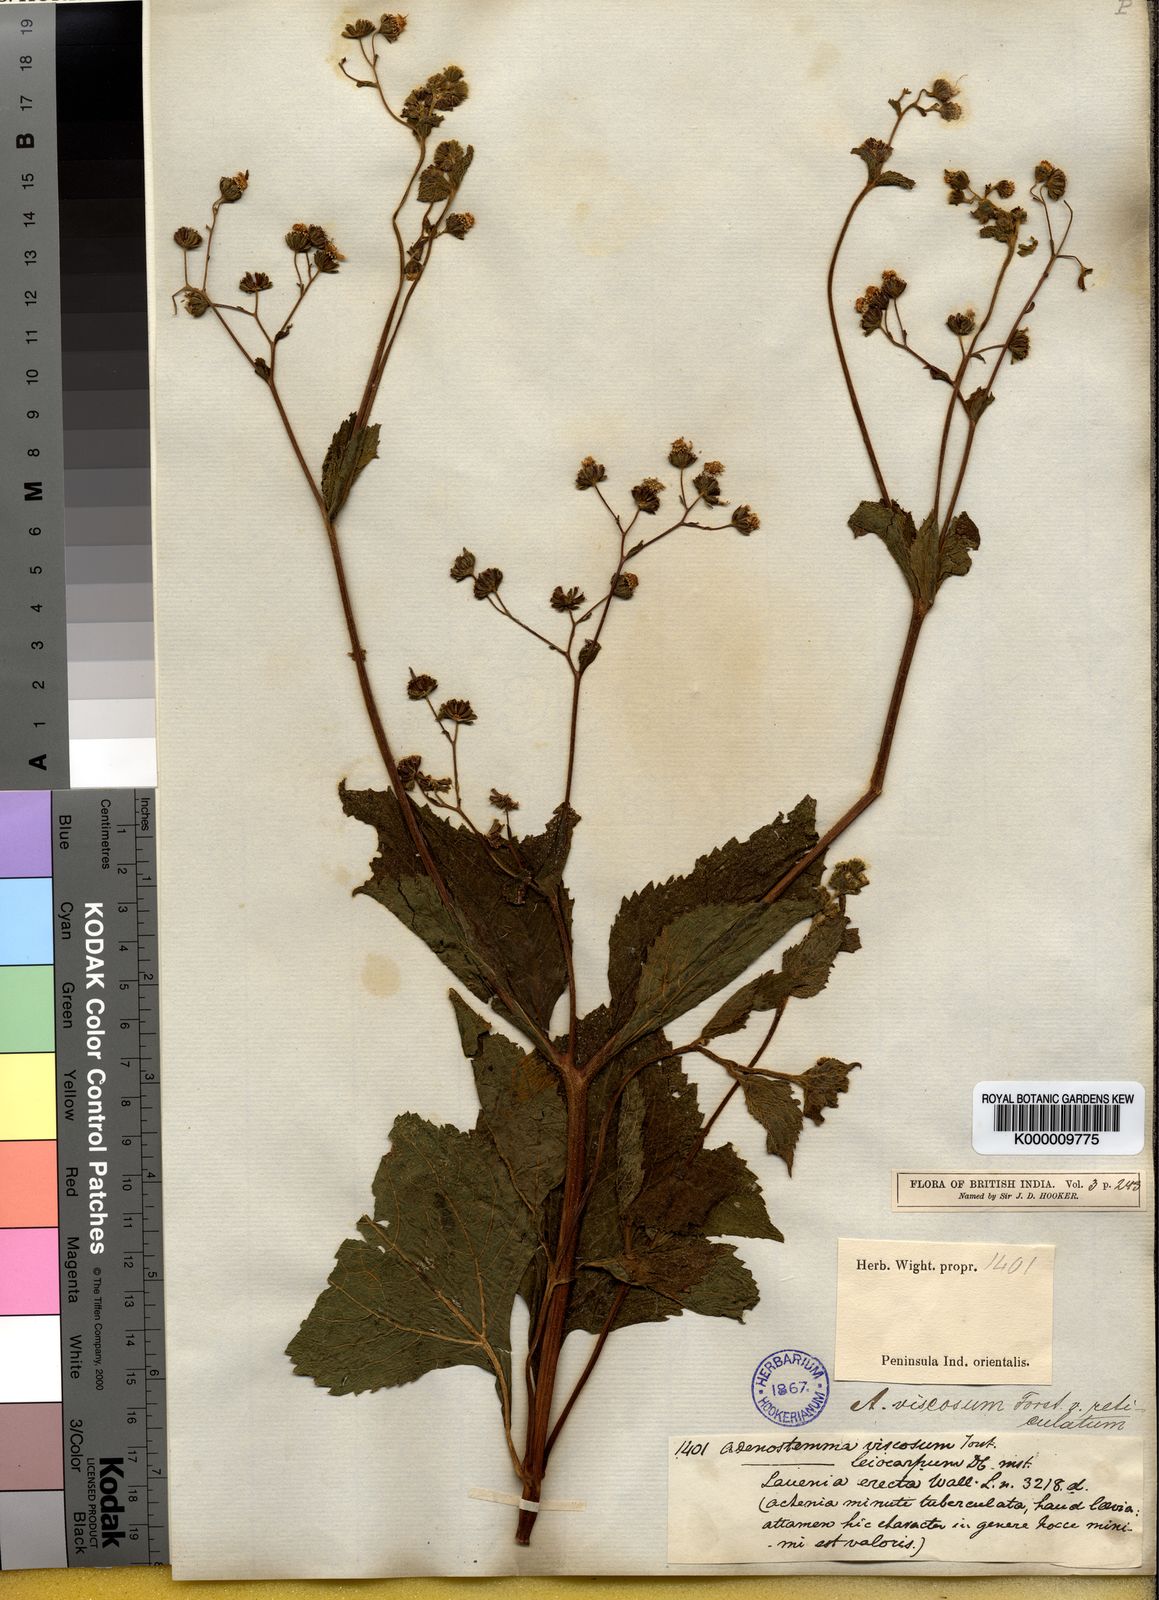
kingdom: Plantae
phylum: Tracheophyta
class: Magnoliopsida
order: Asterales
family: Asteraceae
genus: Adenostemma
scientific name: Adenostemma viscosum
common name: Dungweed
